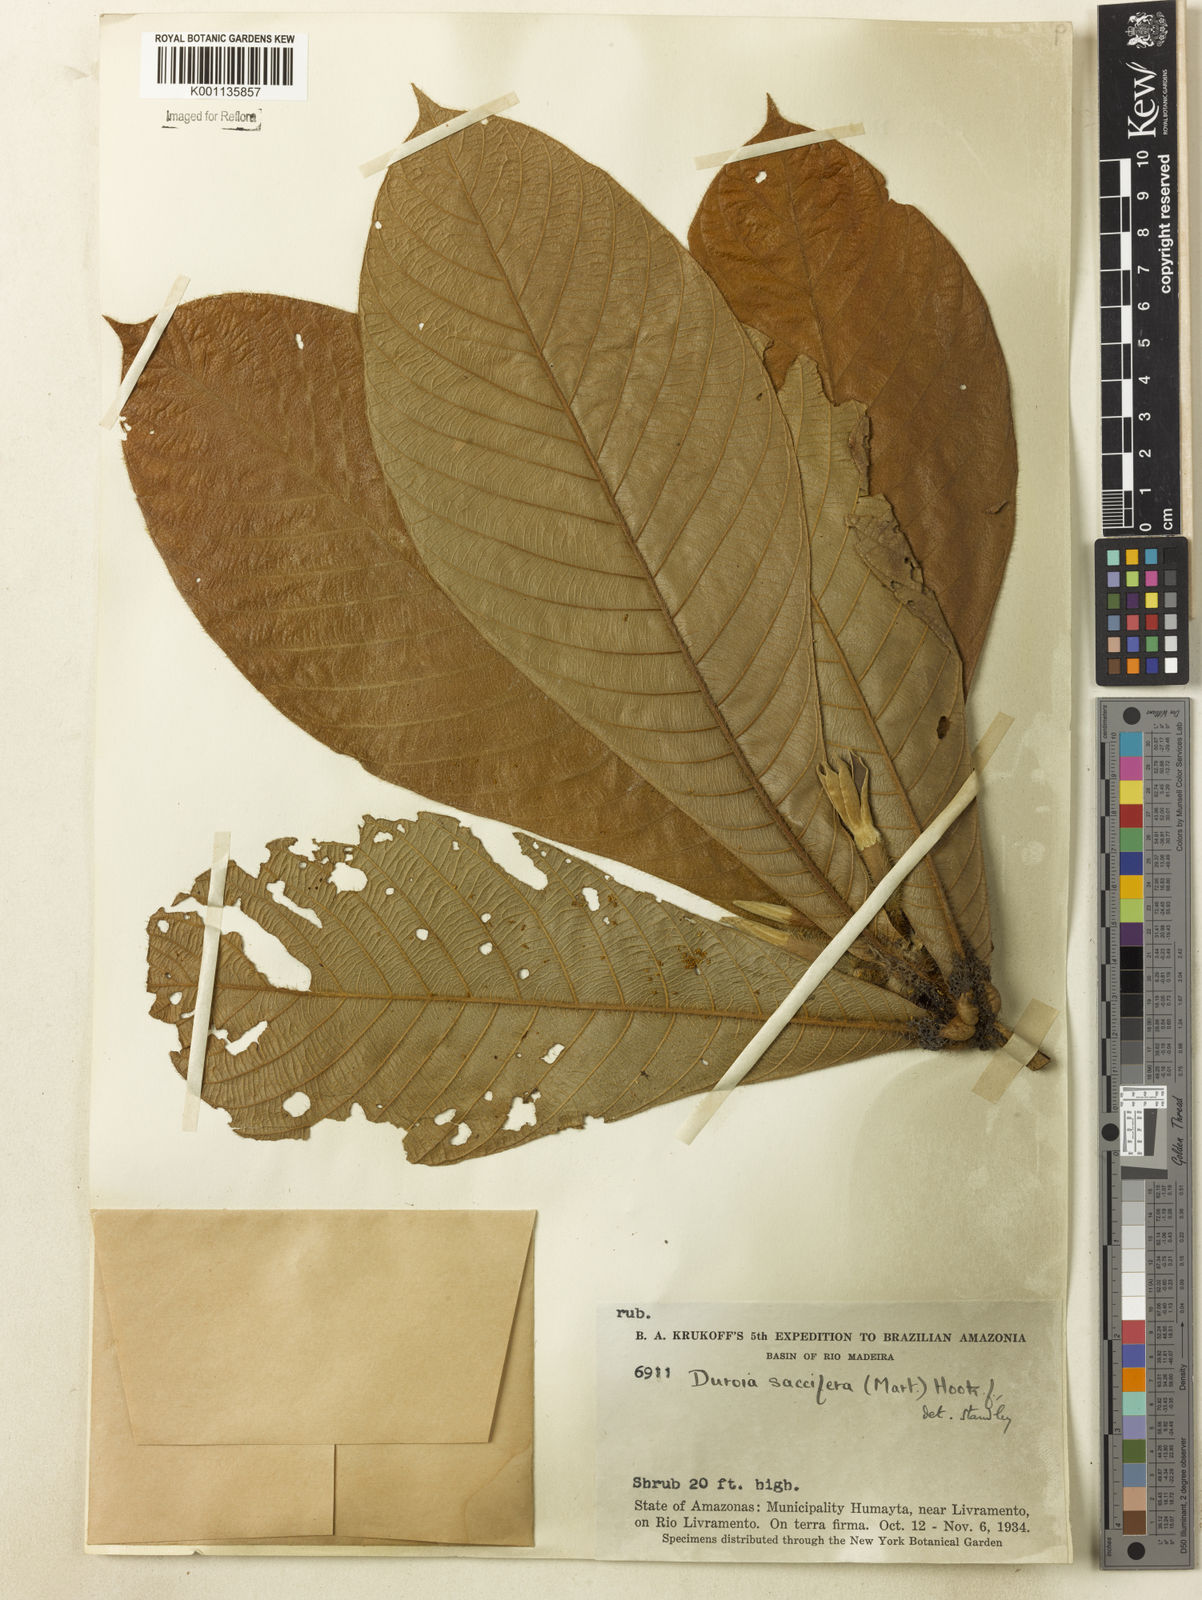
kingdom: Plantae
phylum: Tracheophyta
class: Magnoliopsida
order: Gentianales
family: Rubiaceae
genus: Duroia
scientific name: Duroia saccifera
